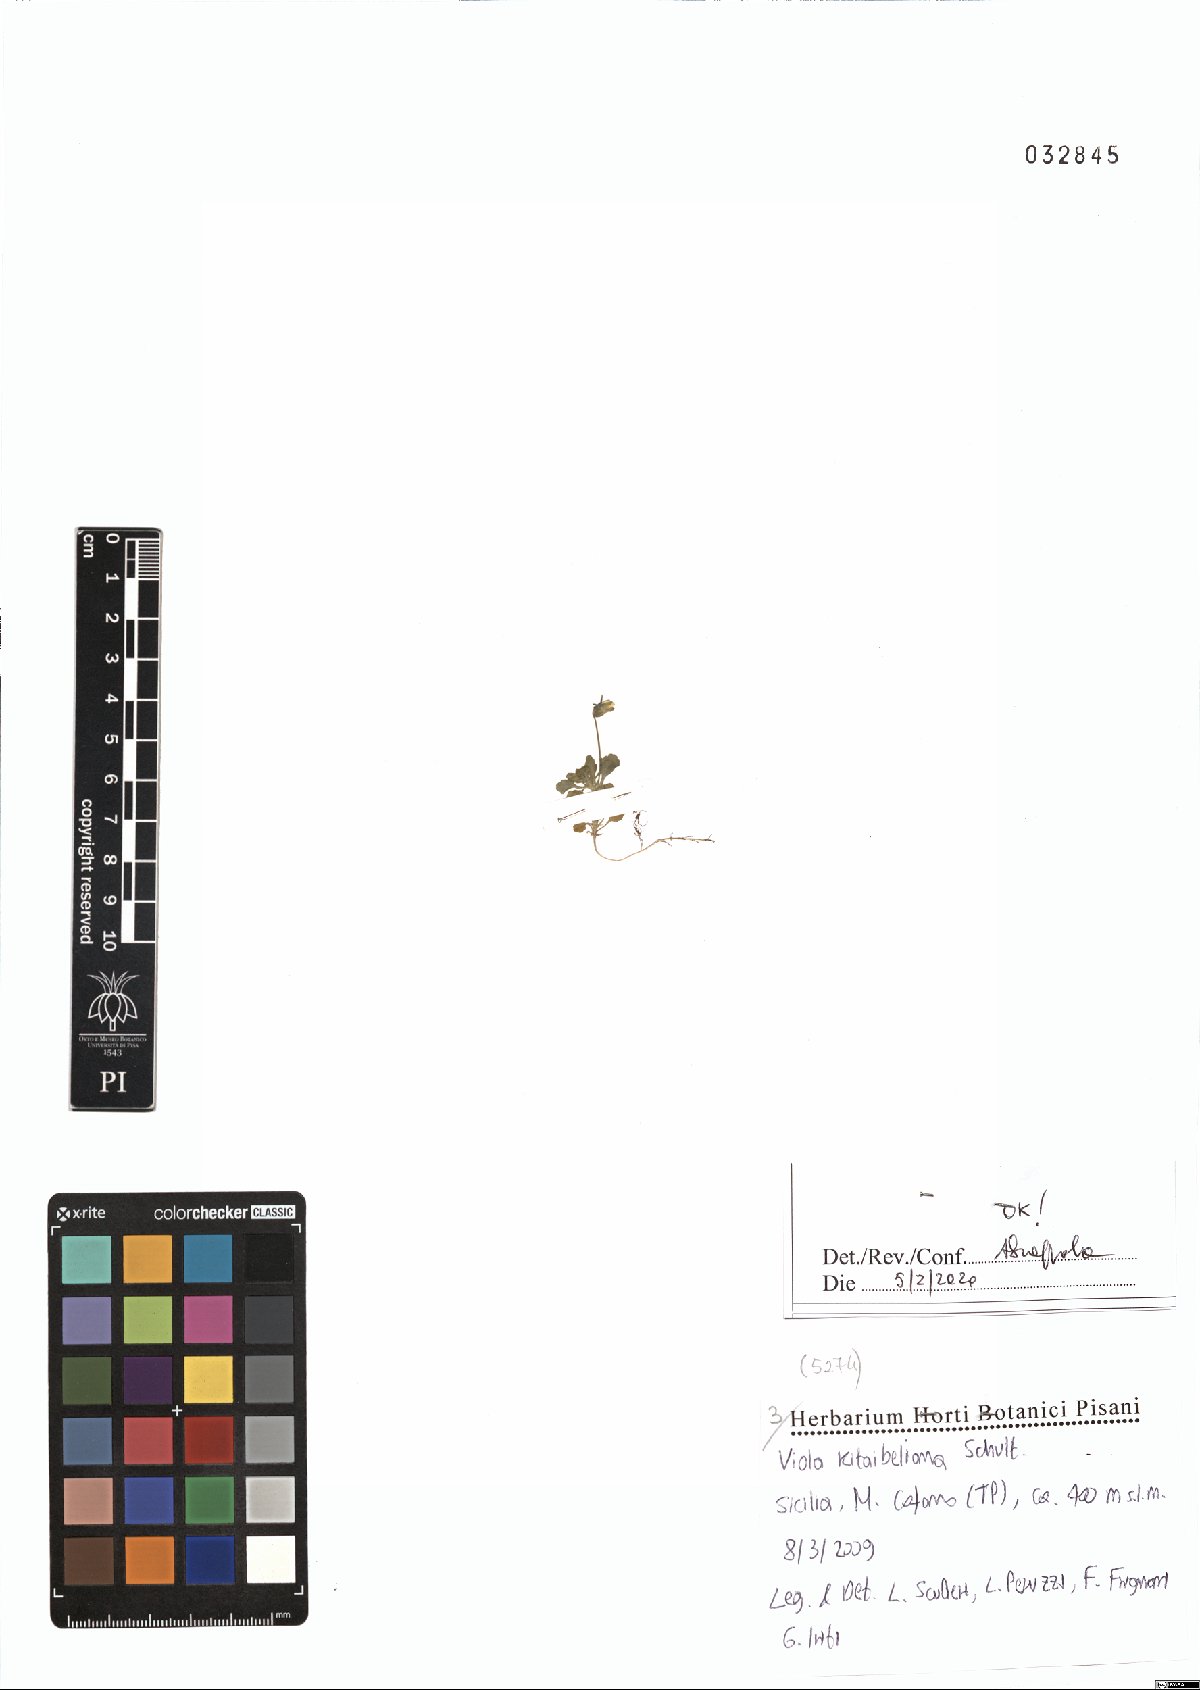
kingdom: Plantae
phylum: Tracheophyta
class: Magnoliopsida
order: Malpighiales
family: Violaceae
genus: Viola
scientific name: Viola kitaibeliana
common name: Dwarf pansy
